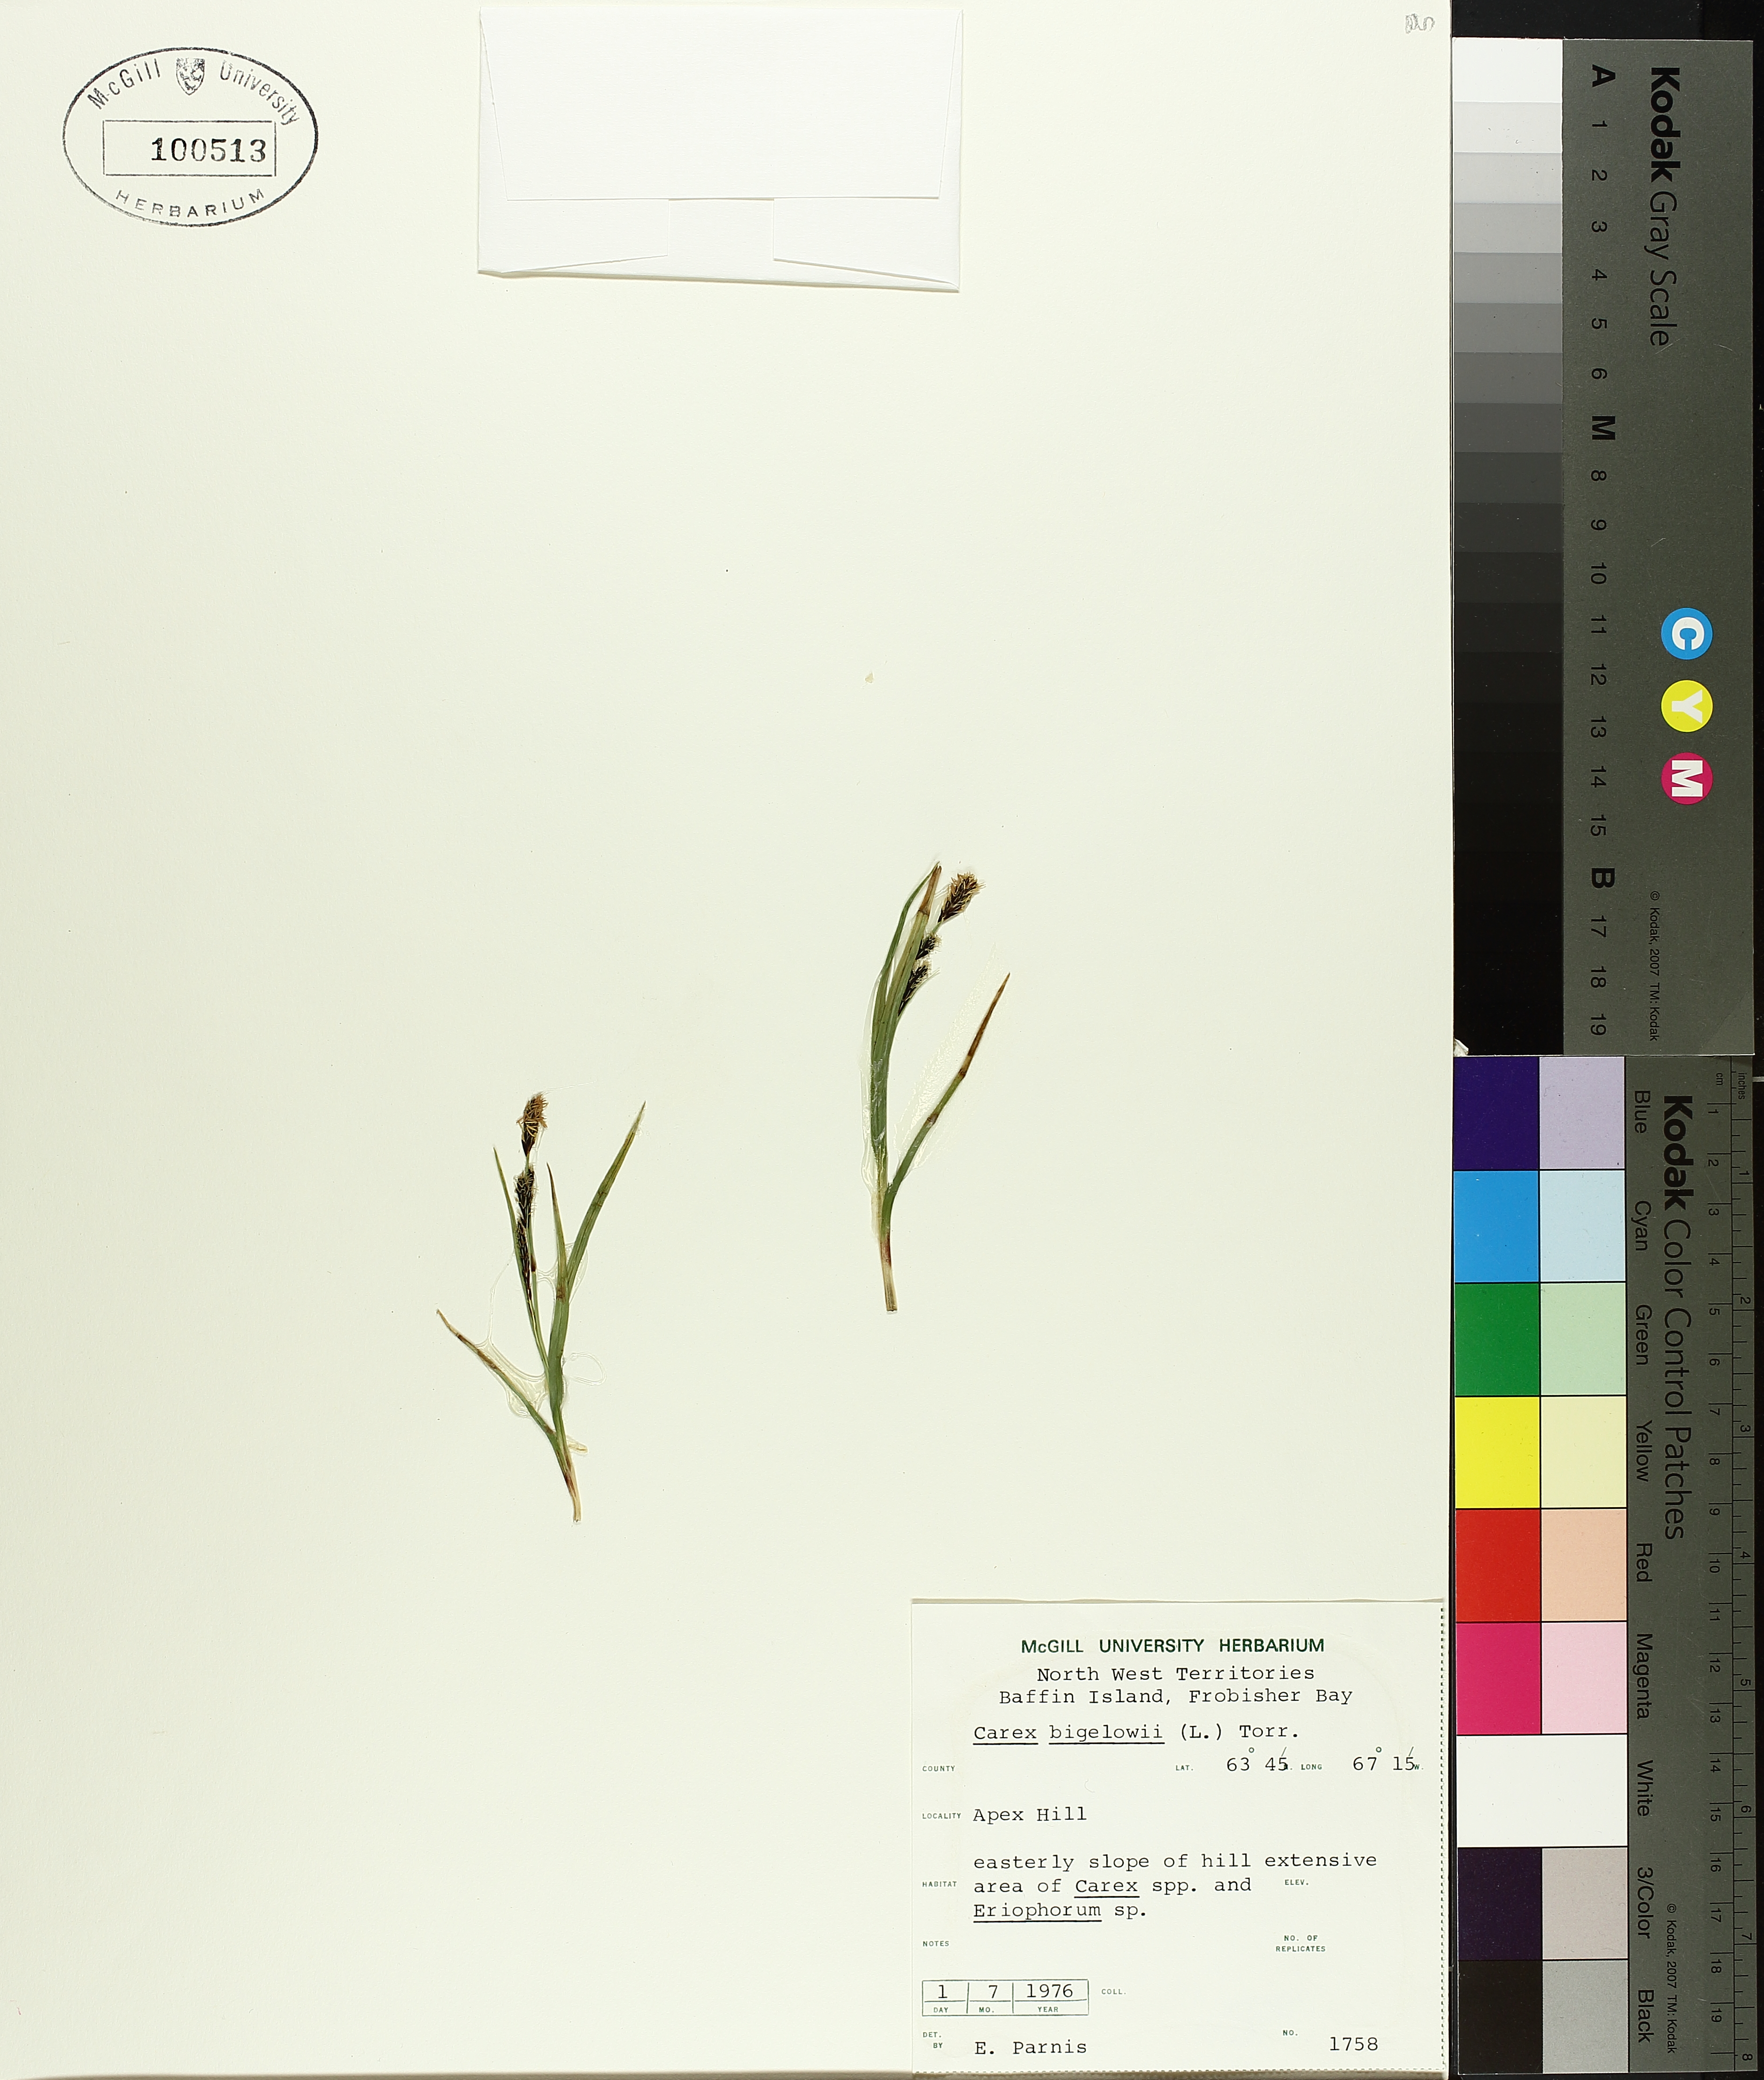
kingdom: Plantae
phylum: Tracheophyta
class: Liliopsida
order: Poales
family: Cyperaceae
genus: Carex
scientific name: Carex bigelowii
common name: Stiff sedge
